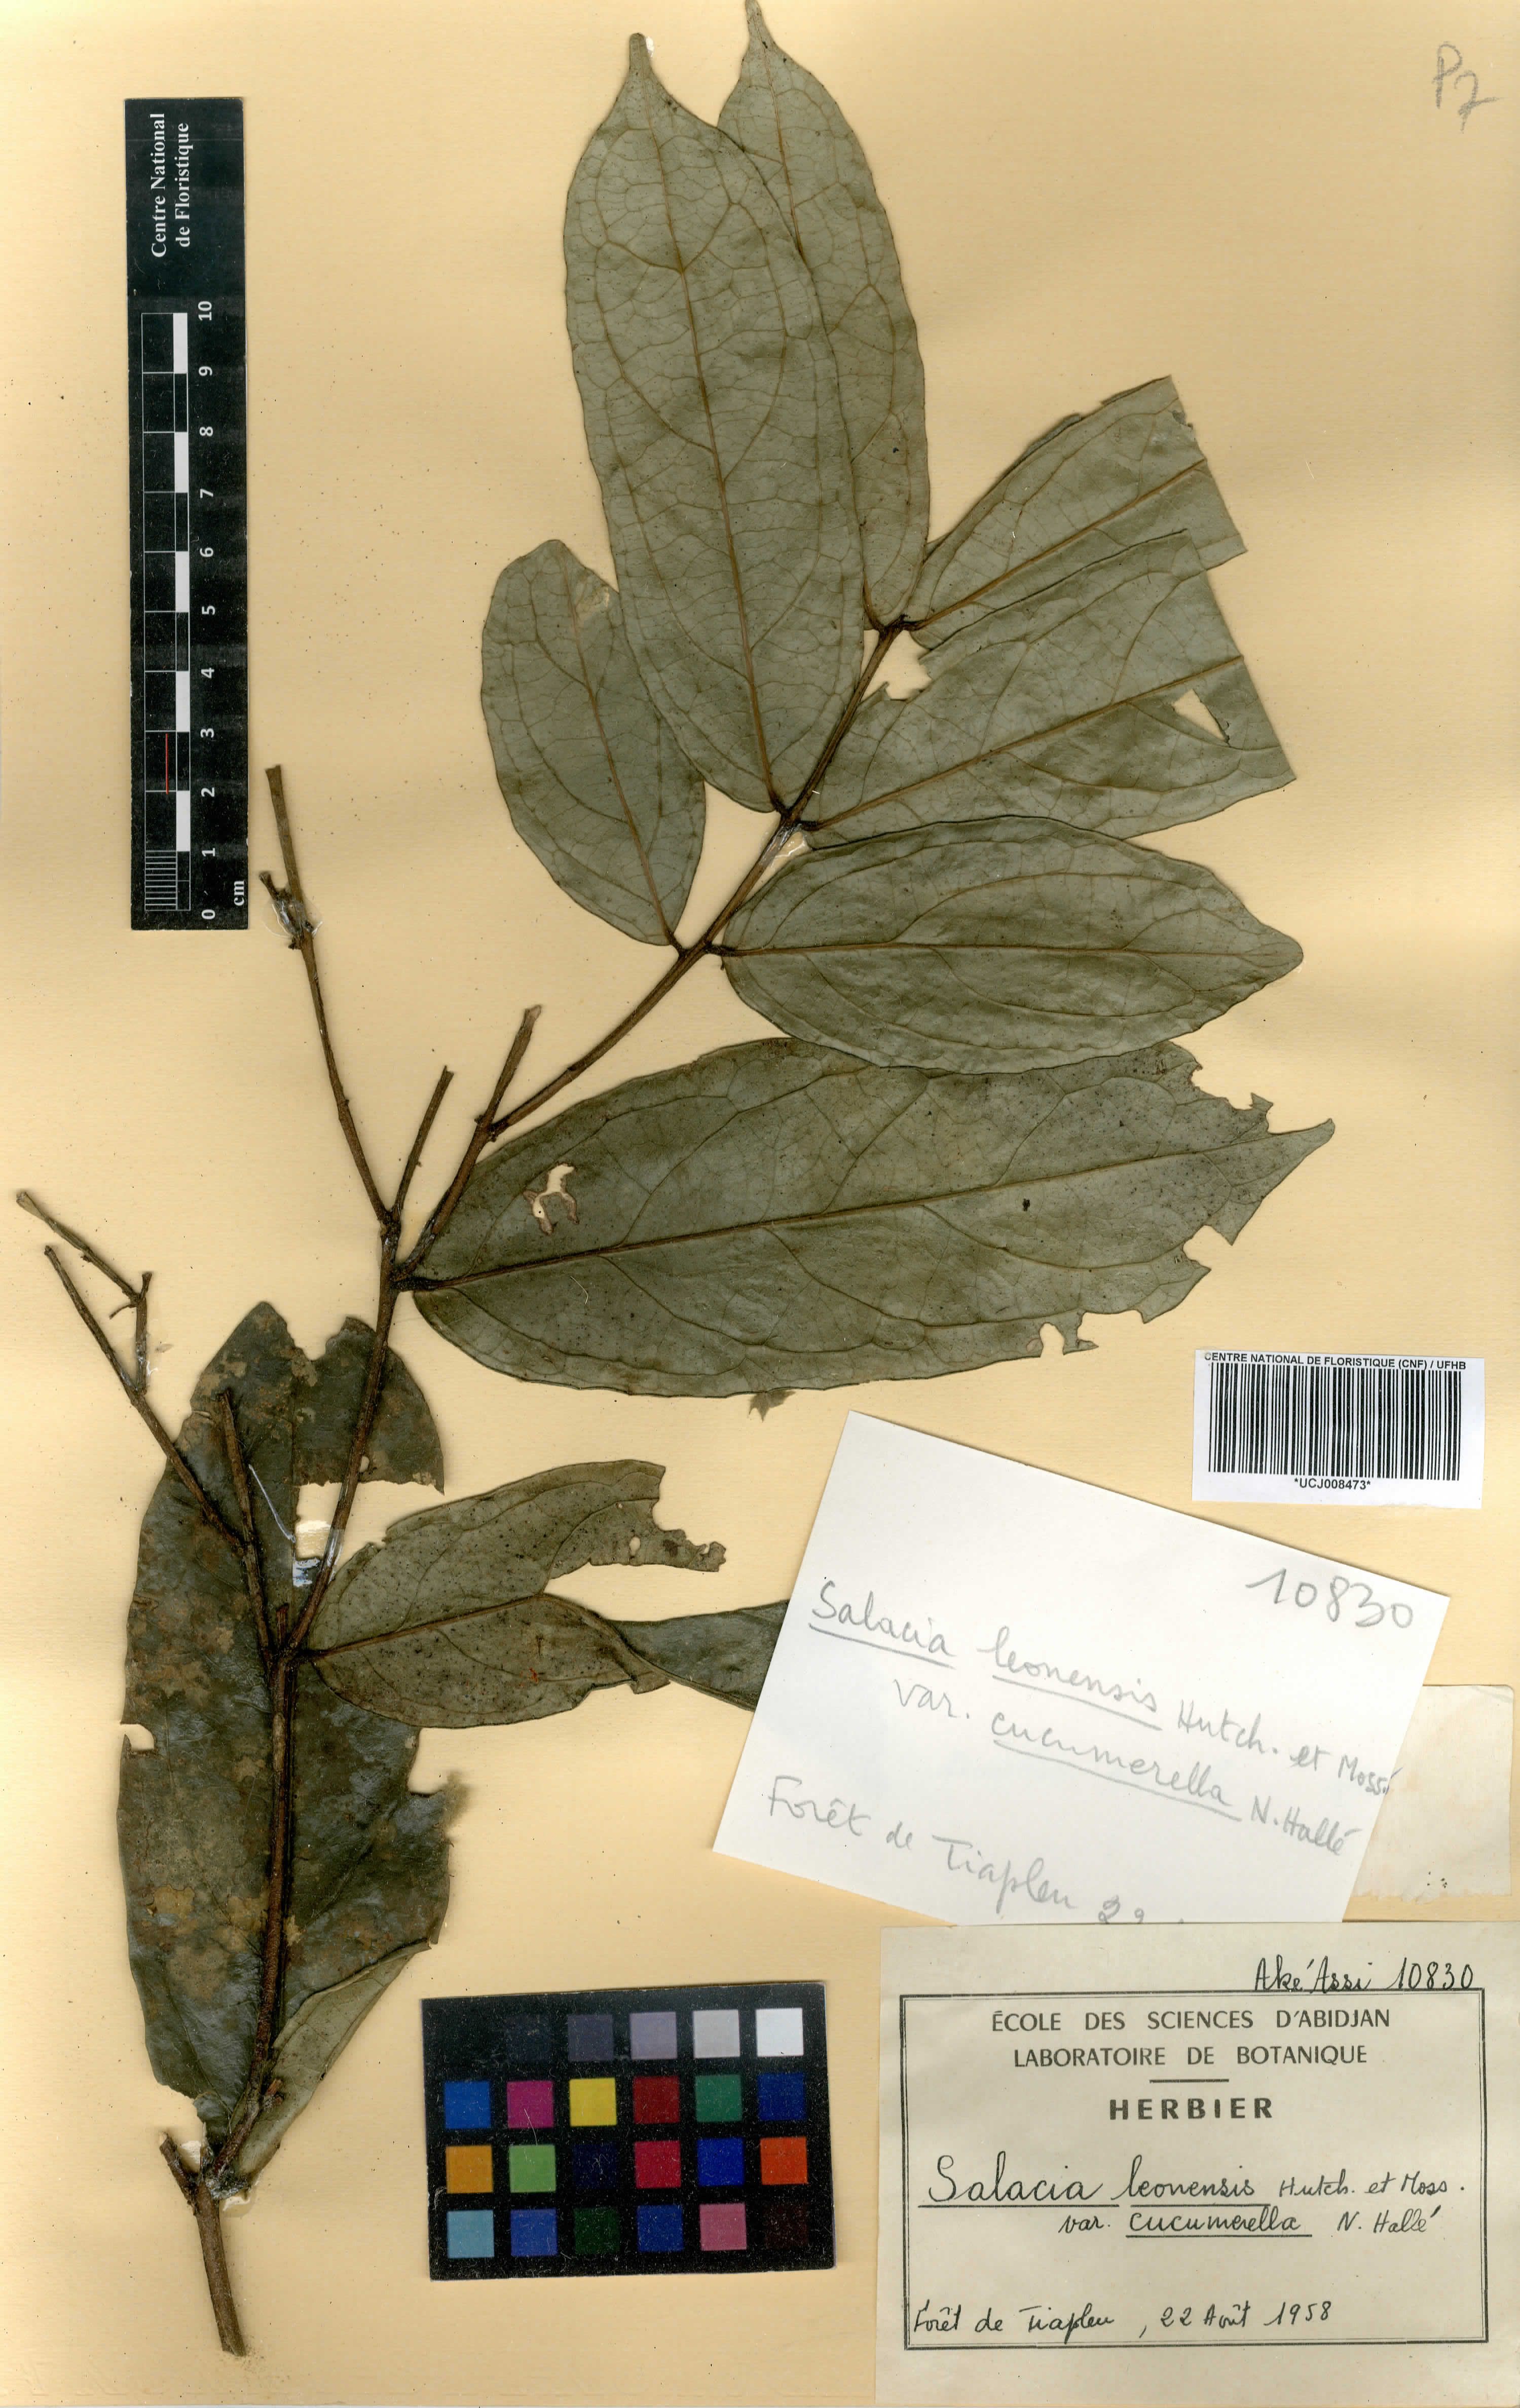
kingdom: Plantae
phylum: Tracheophyta
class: Magnoliopsida
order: Celastrales
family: Celastraceae
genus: Salacia
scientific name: Salacia lehmbachii
